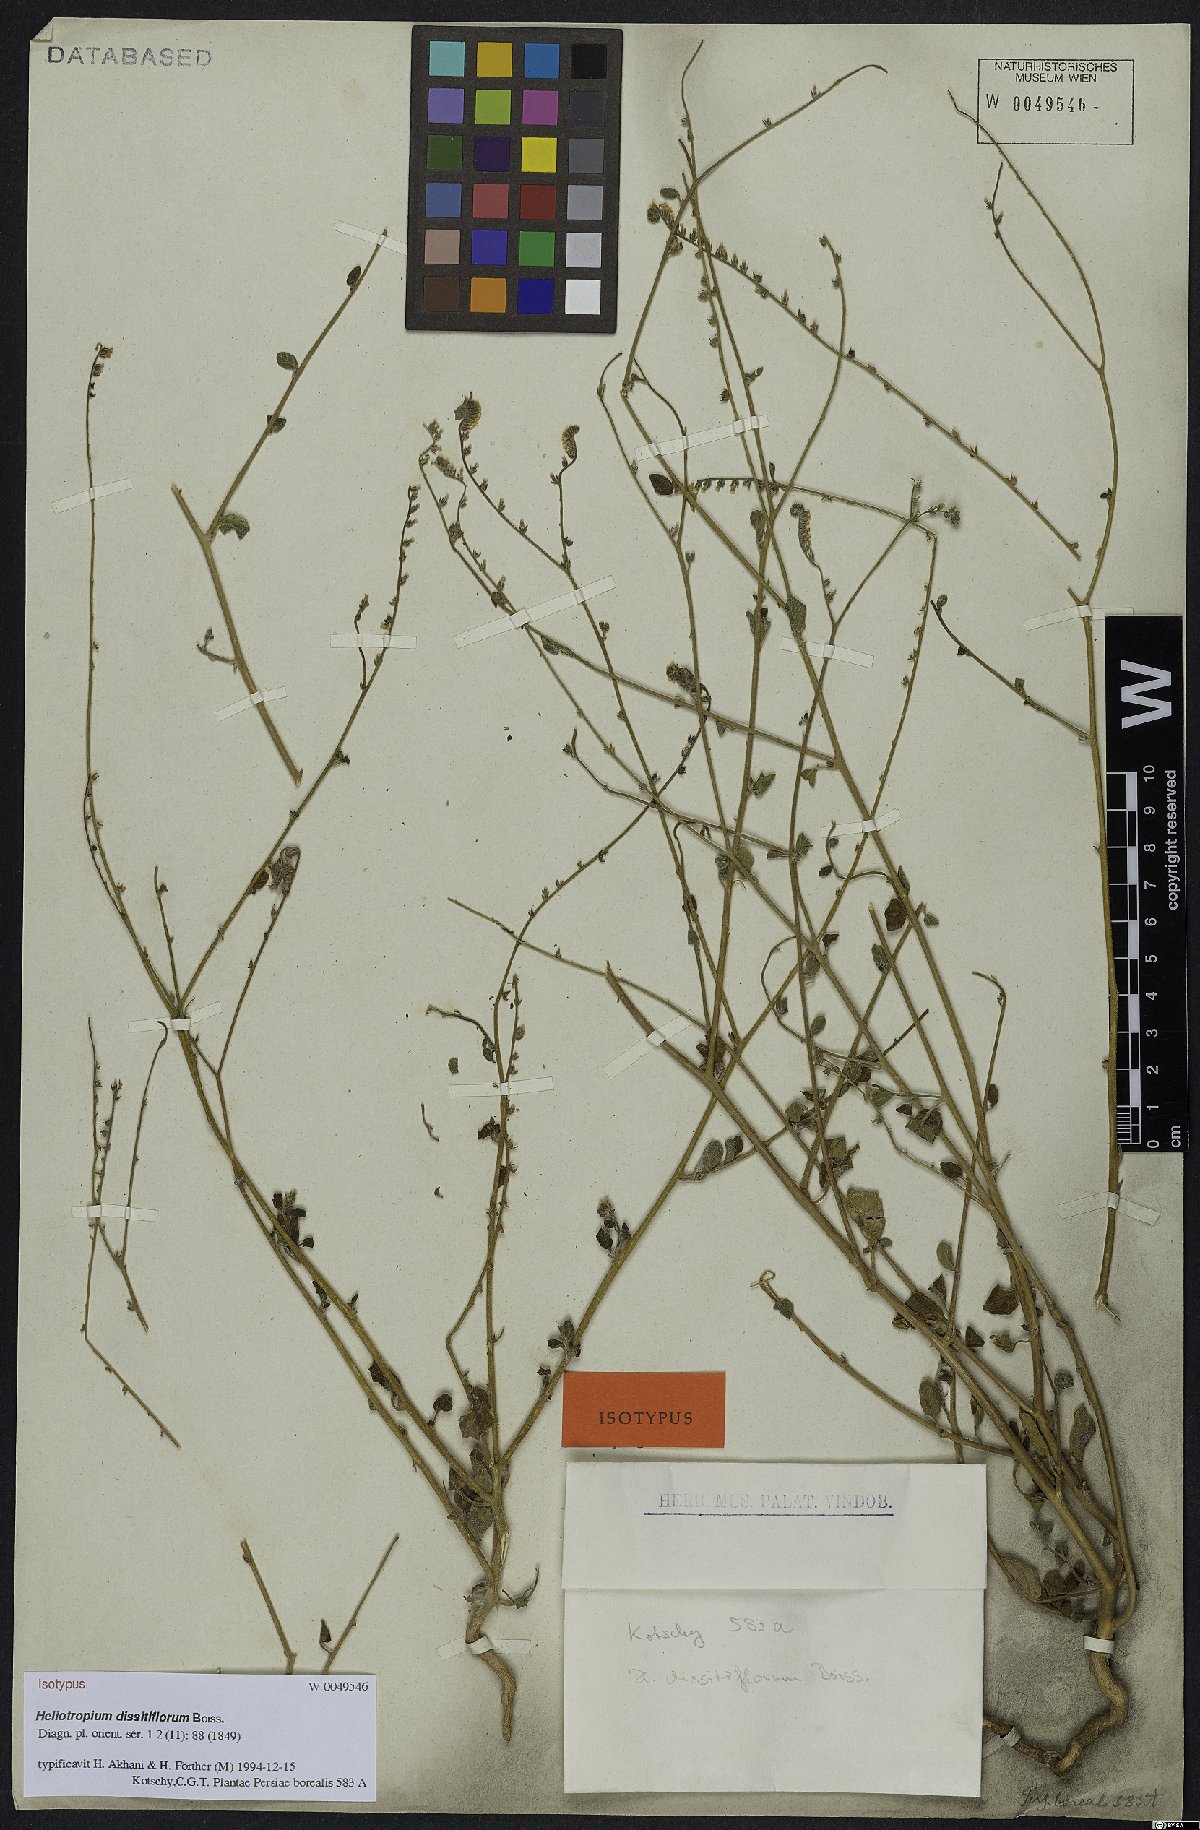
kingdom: Plantae
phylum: Tracheophyta
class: Magnoliopsida
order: Boraginales
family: Heliotropiaceae
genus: Heliotropium
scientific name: Heliotropium dissitiflorum
